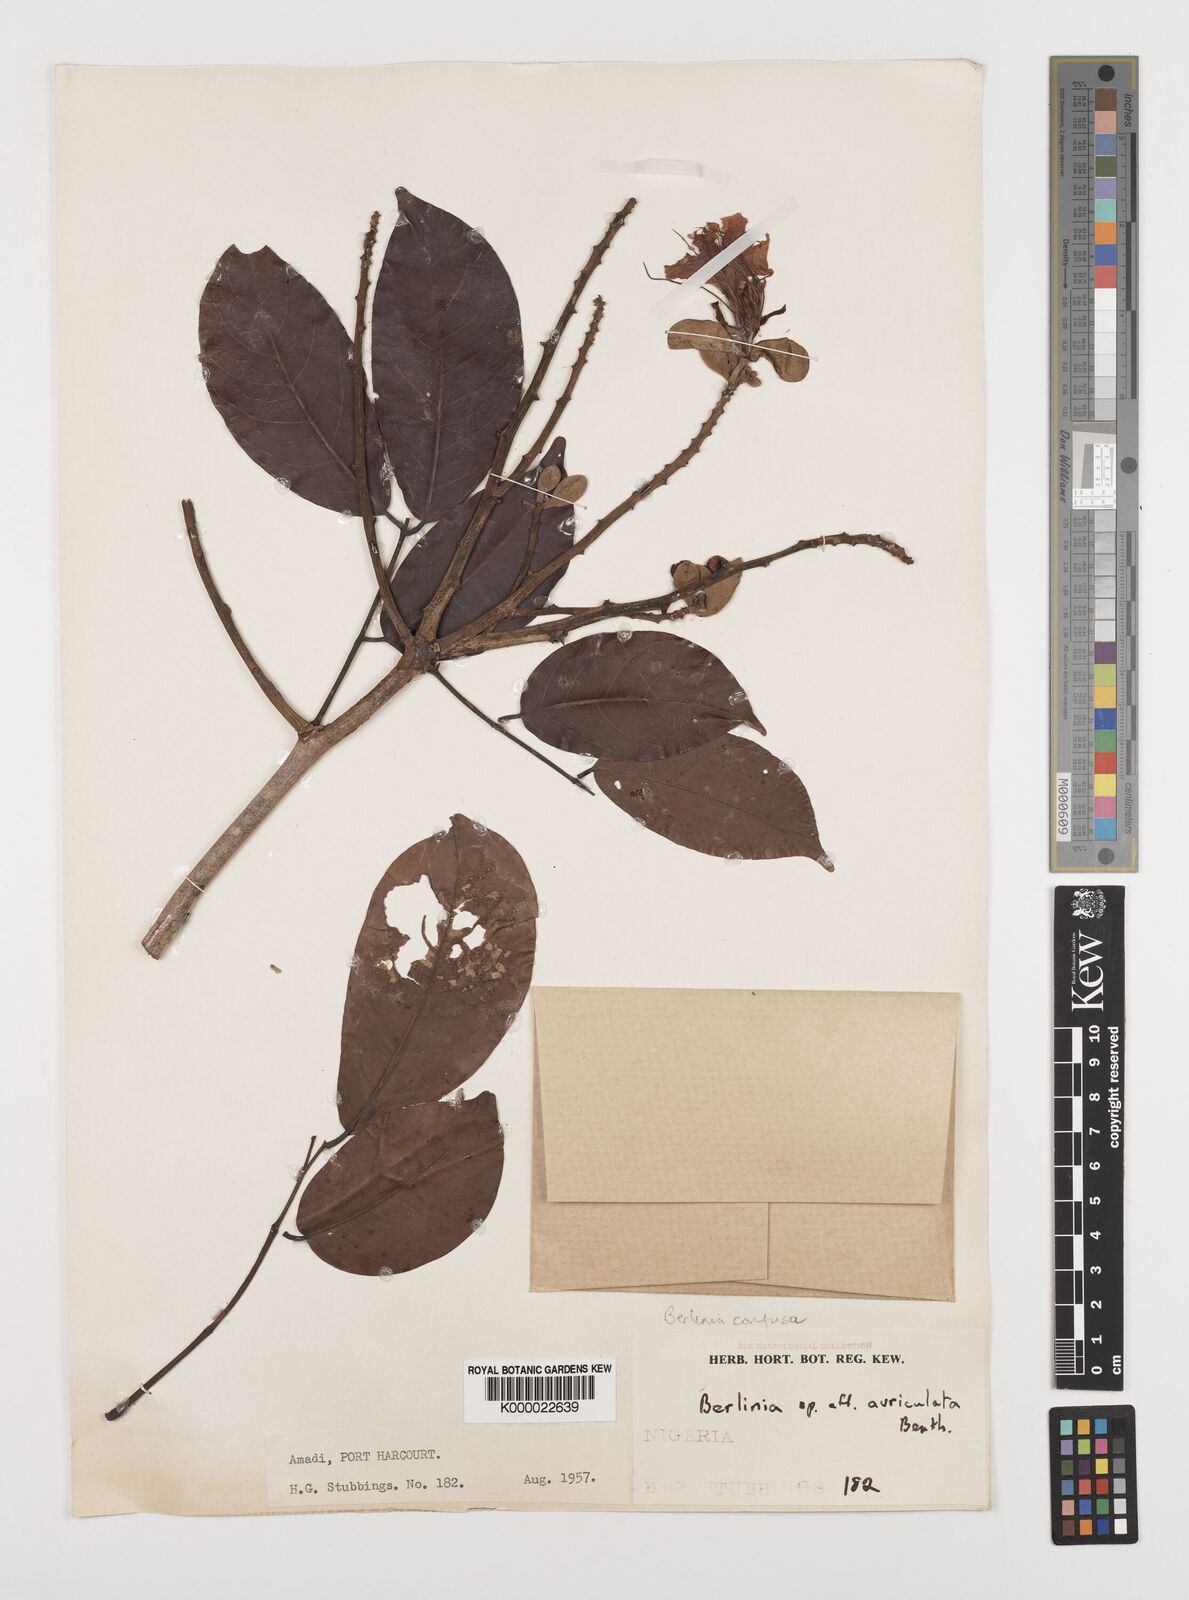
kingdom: Plantae
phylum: Tracheophyta
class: Magnoliopsida
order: Fabales
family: Fabaceae
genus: Berlinia
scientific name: Berlinia auriculata
